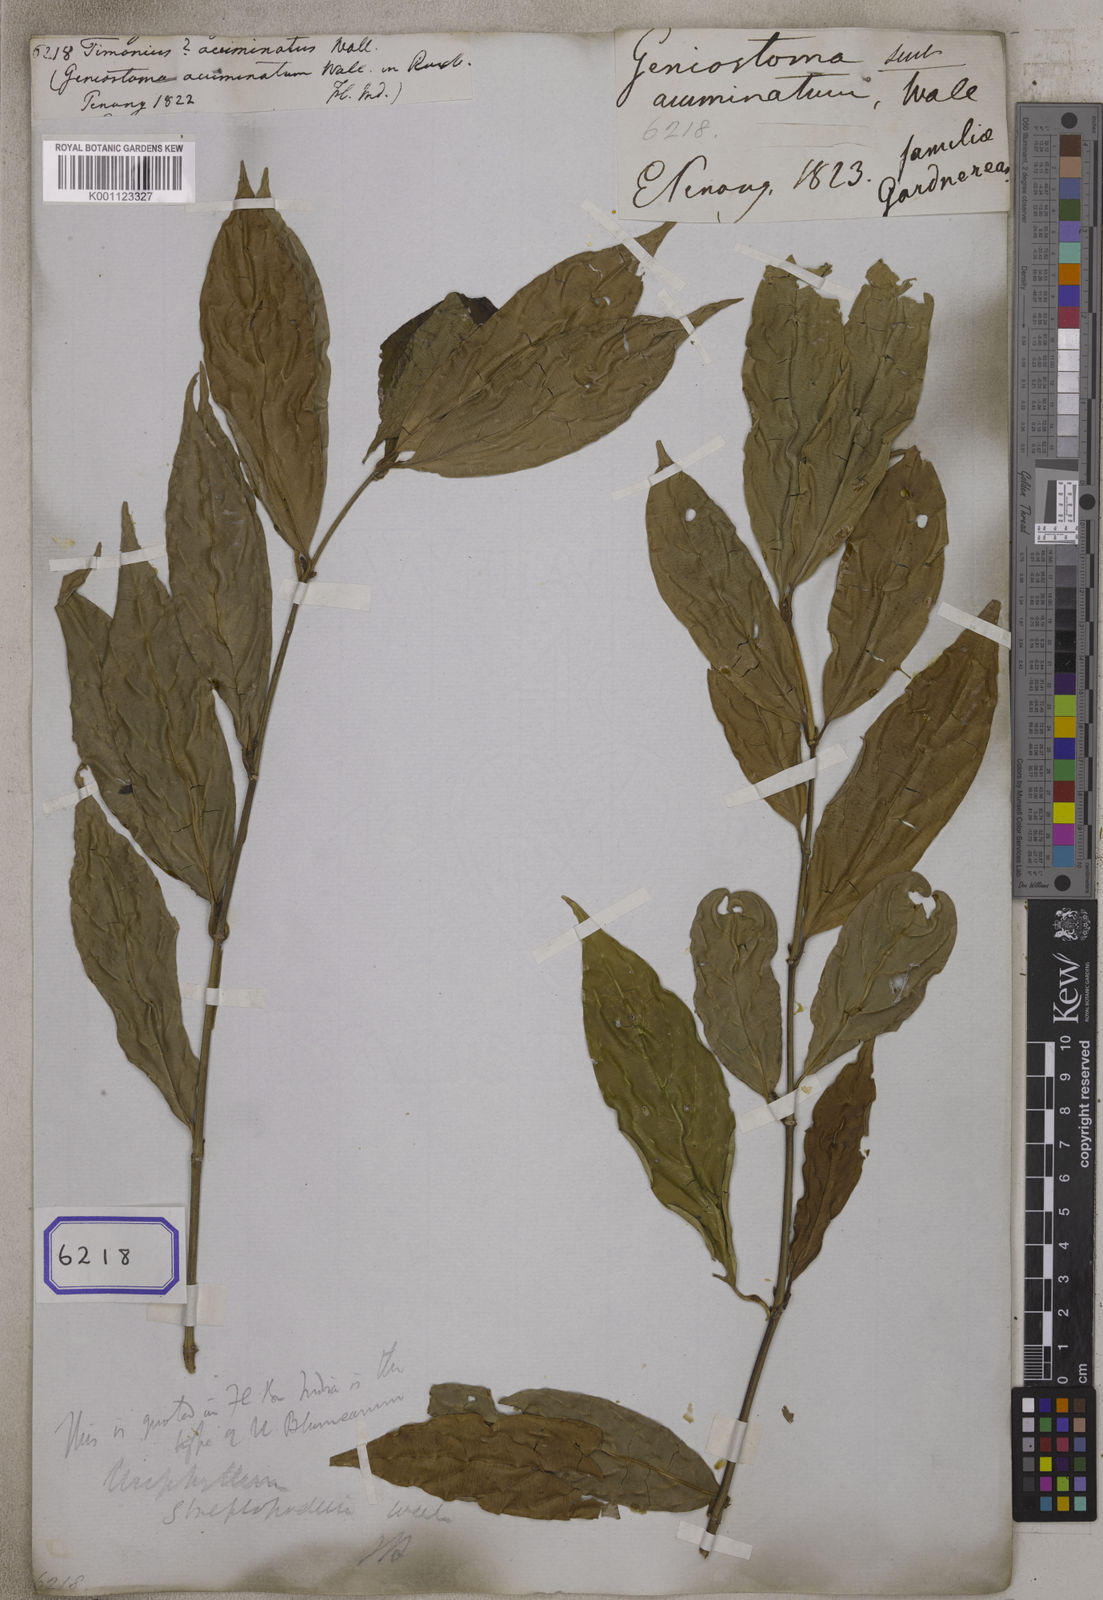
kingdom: Plantae
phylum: Tracheophyta
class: Magnoliopsida
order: Gentianales
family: Rubiaceae
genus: Urophyllum
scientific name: Urophyllum arboreum
